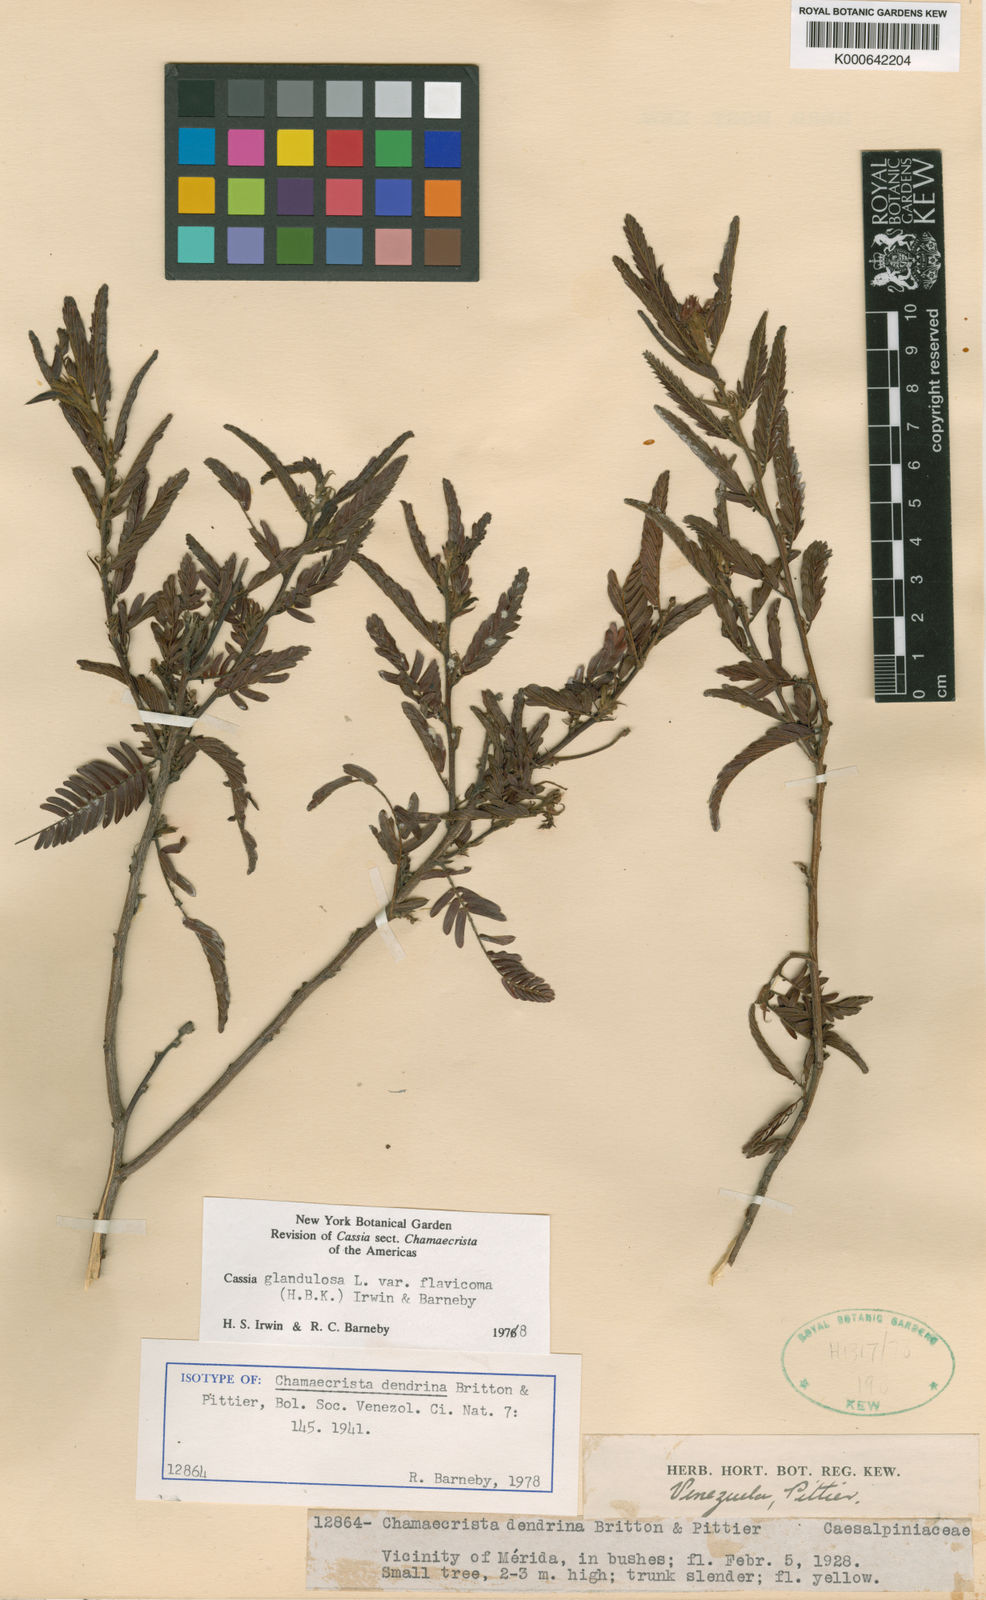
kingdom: Plantae
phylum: Tracheophyta
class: Magnoliopsida
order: Fabales
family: Fabaceae
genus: Chamaecrista
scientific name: Chamaecrista glandulosa
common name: Wild peas
